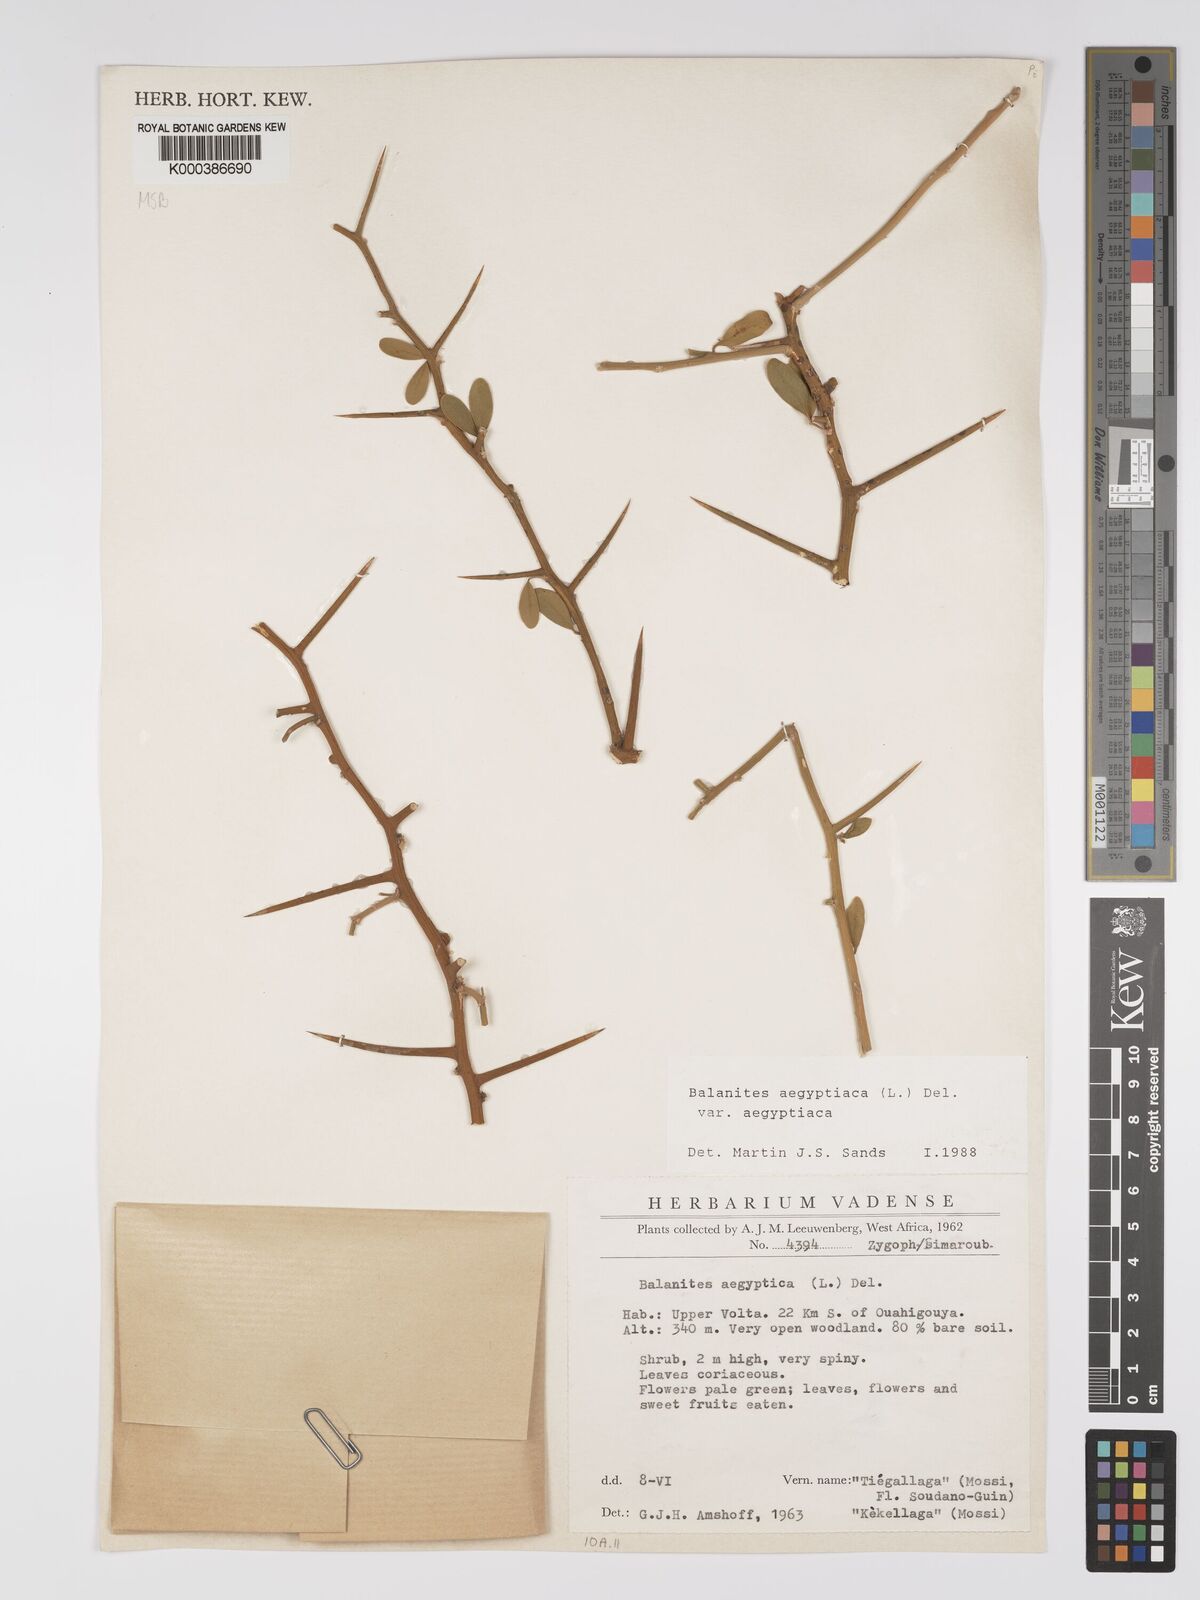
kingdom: Plantae
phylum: Tracheophyta
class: Magnoliopsida
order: Zygophyllales
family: Zygophyllaceae
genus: Balanites
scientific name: Balanites aegyptiaca
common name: Balanites
